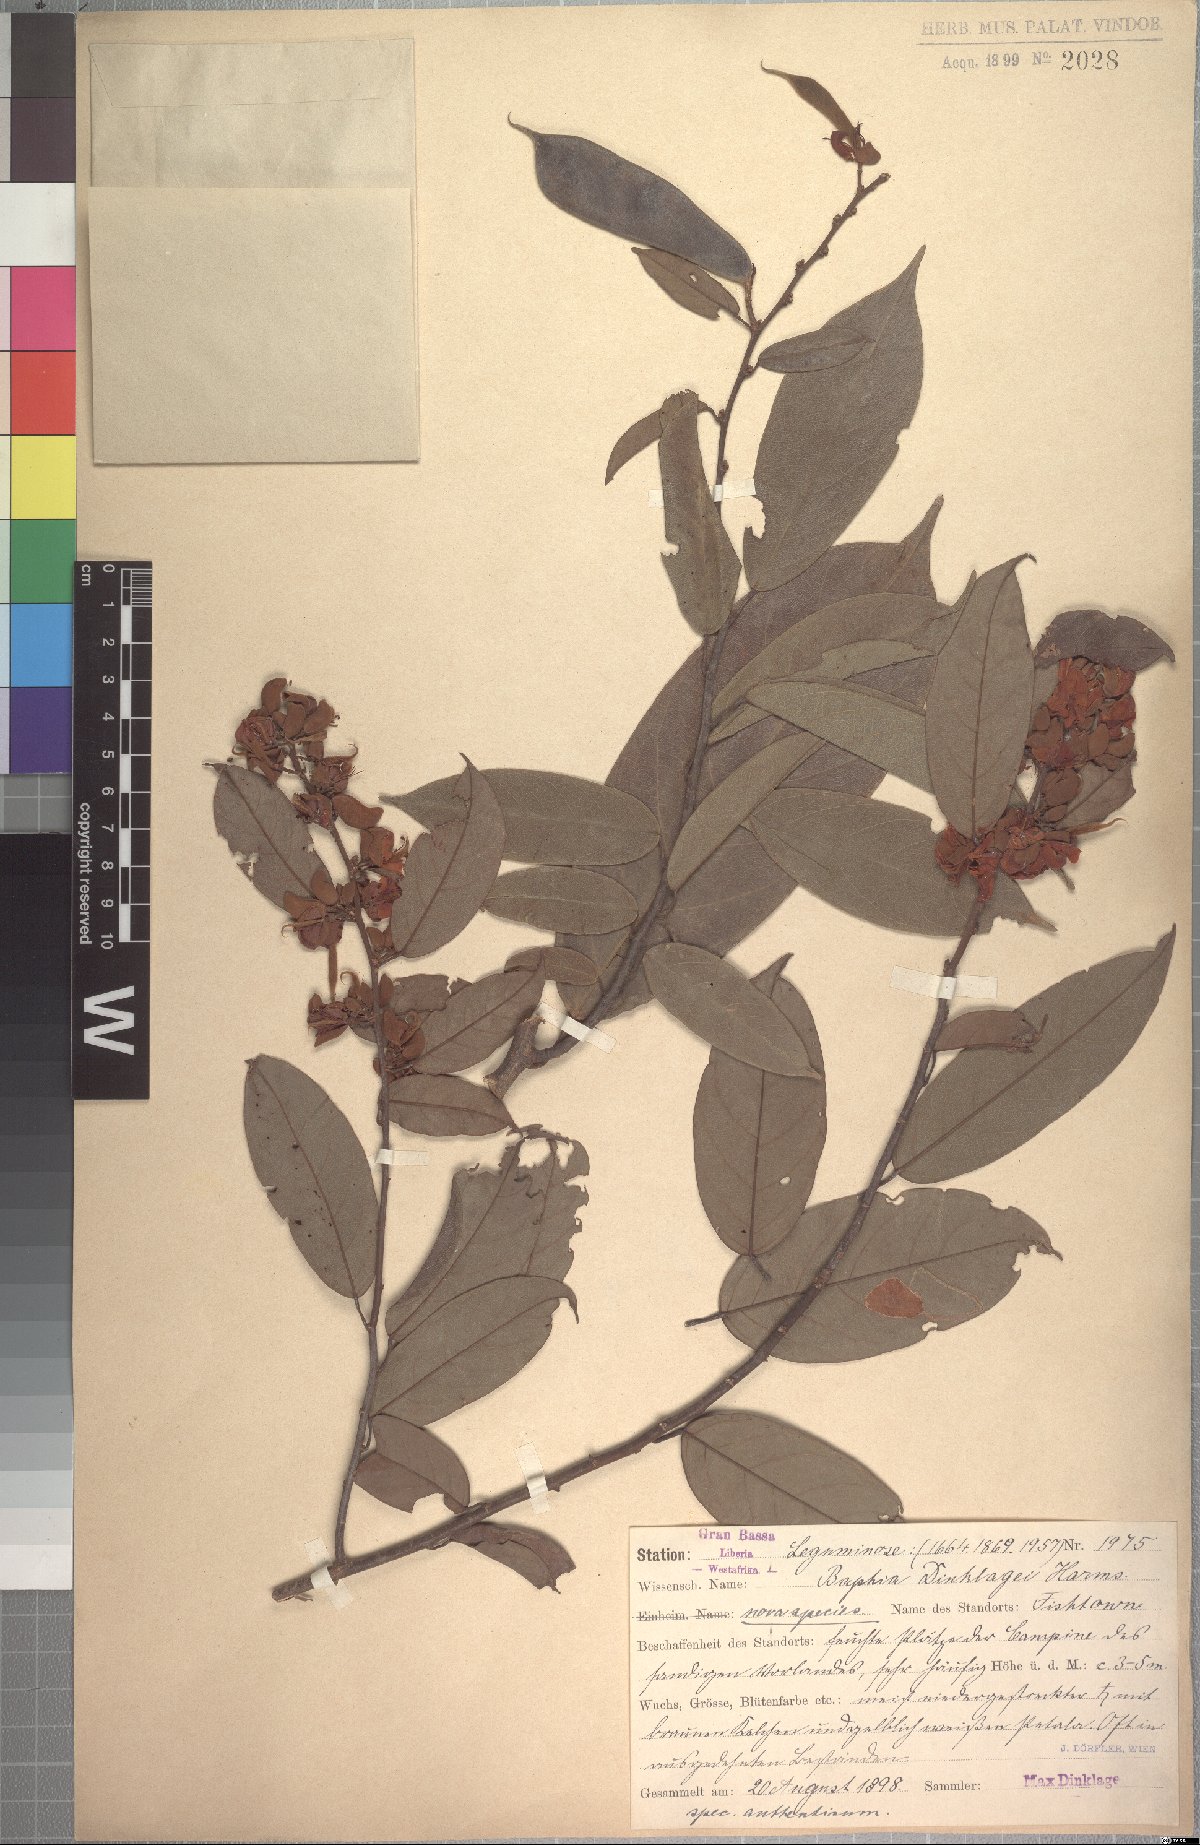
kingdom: Plantae
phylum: Tracheophyta
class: Magnoliopsida
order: Fabales
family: Fabaceae
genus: Baphia
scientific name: Baphia spathacea
